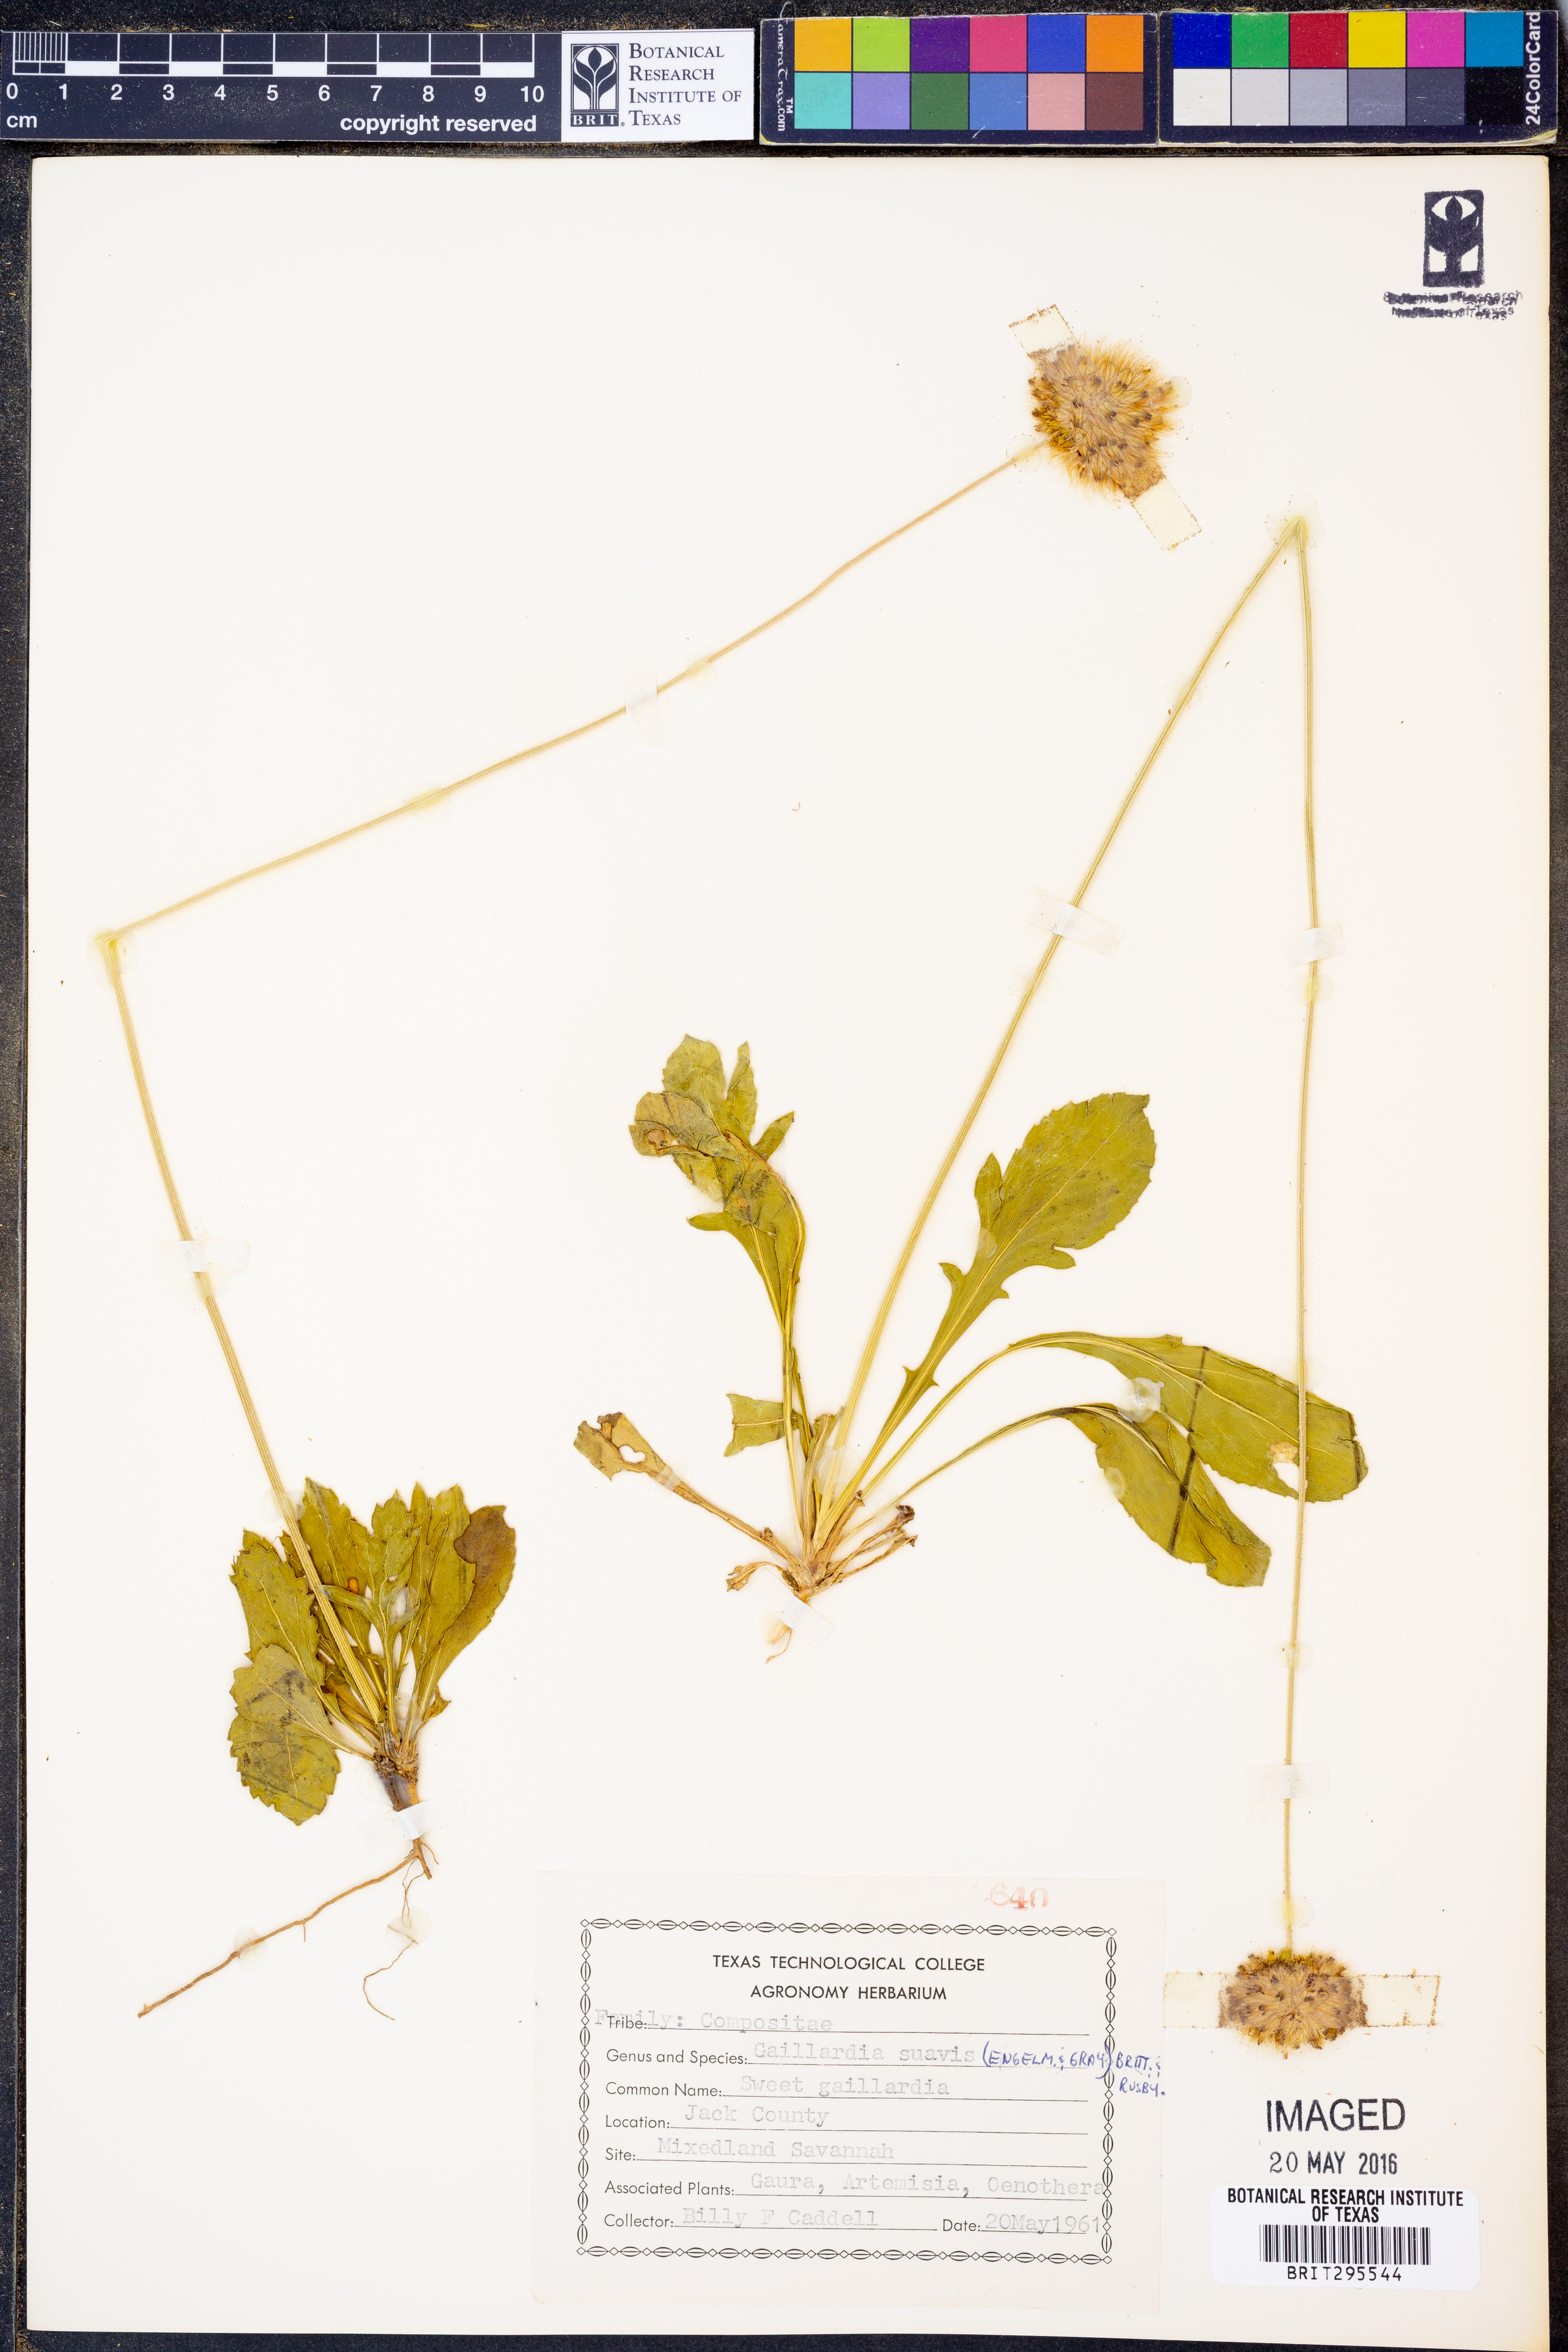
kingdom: Plantae
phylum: Tracheophyta
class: Magnoliopsida
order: Asterales
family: Asteraceae
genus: Gaillardia
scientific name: Gaillardia suavis
